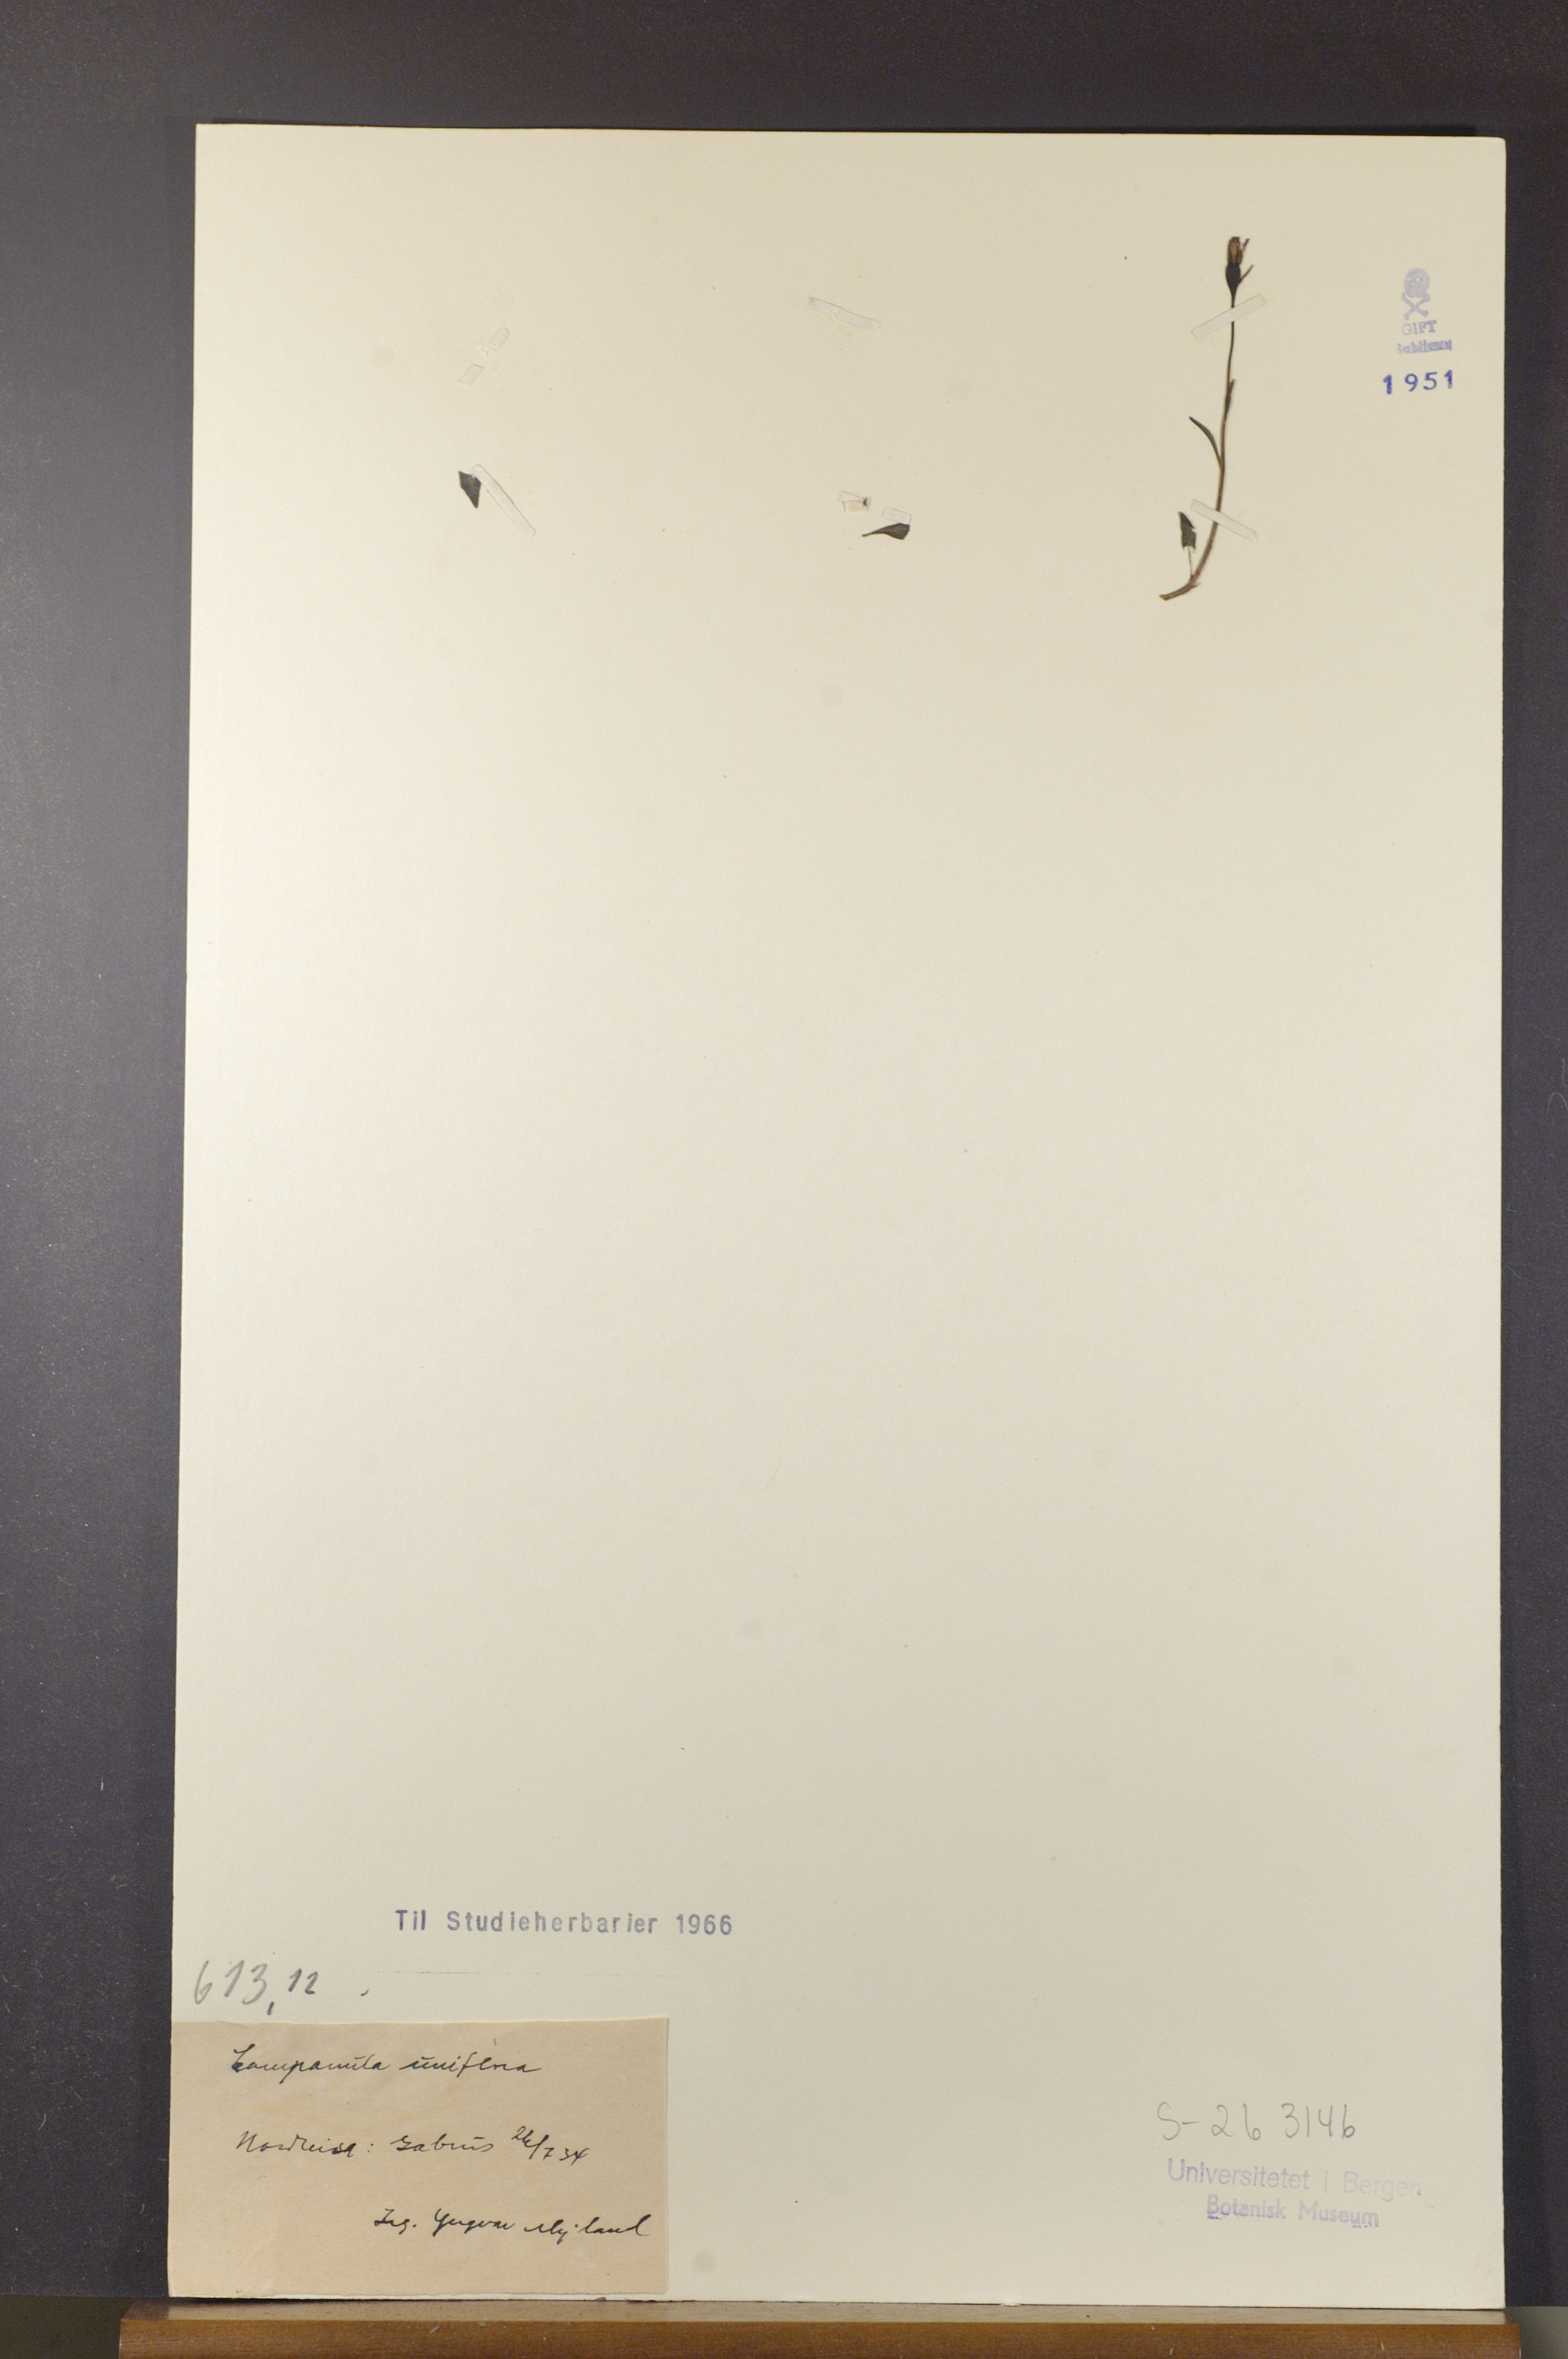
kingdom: Plantae
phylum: Tracheophyta
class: Magnoliopsida
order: Asterales
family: Campanulaceae
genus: Melanocalyx
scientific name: Melanocalyx uniflora
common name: Alpine harebell
